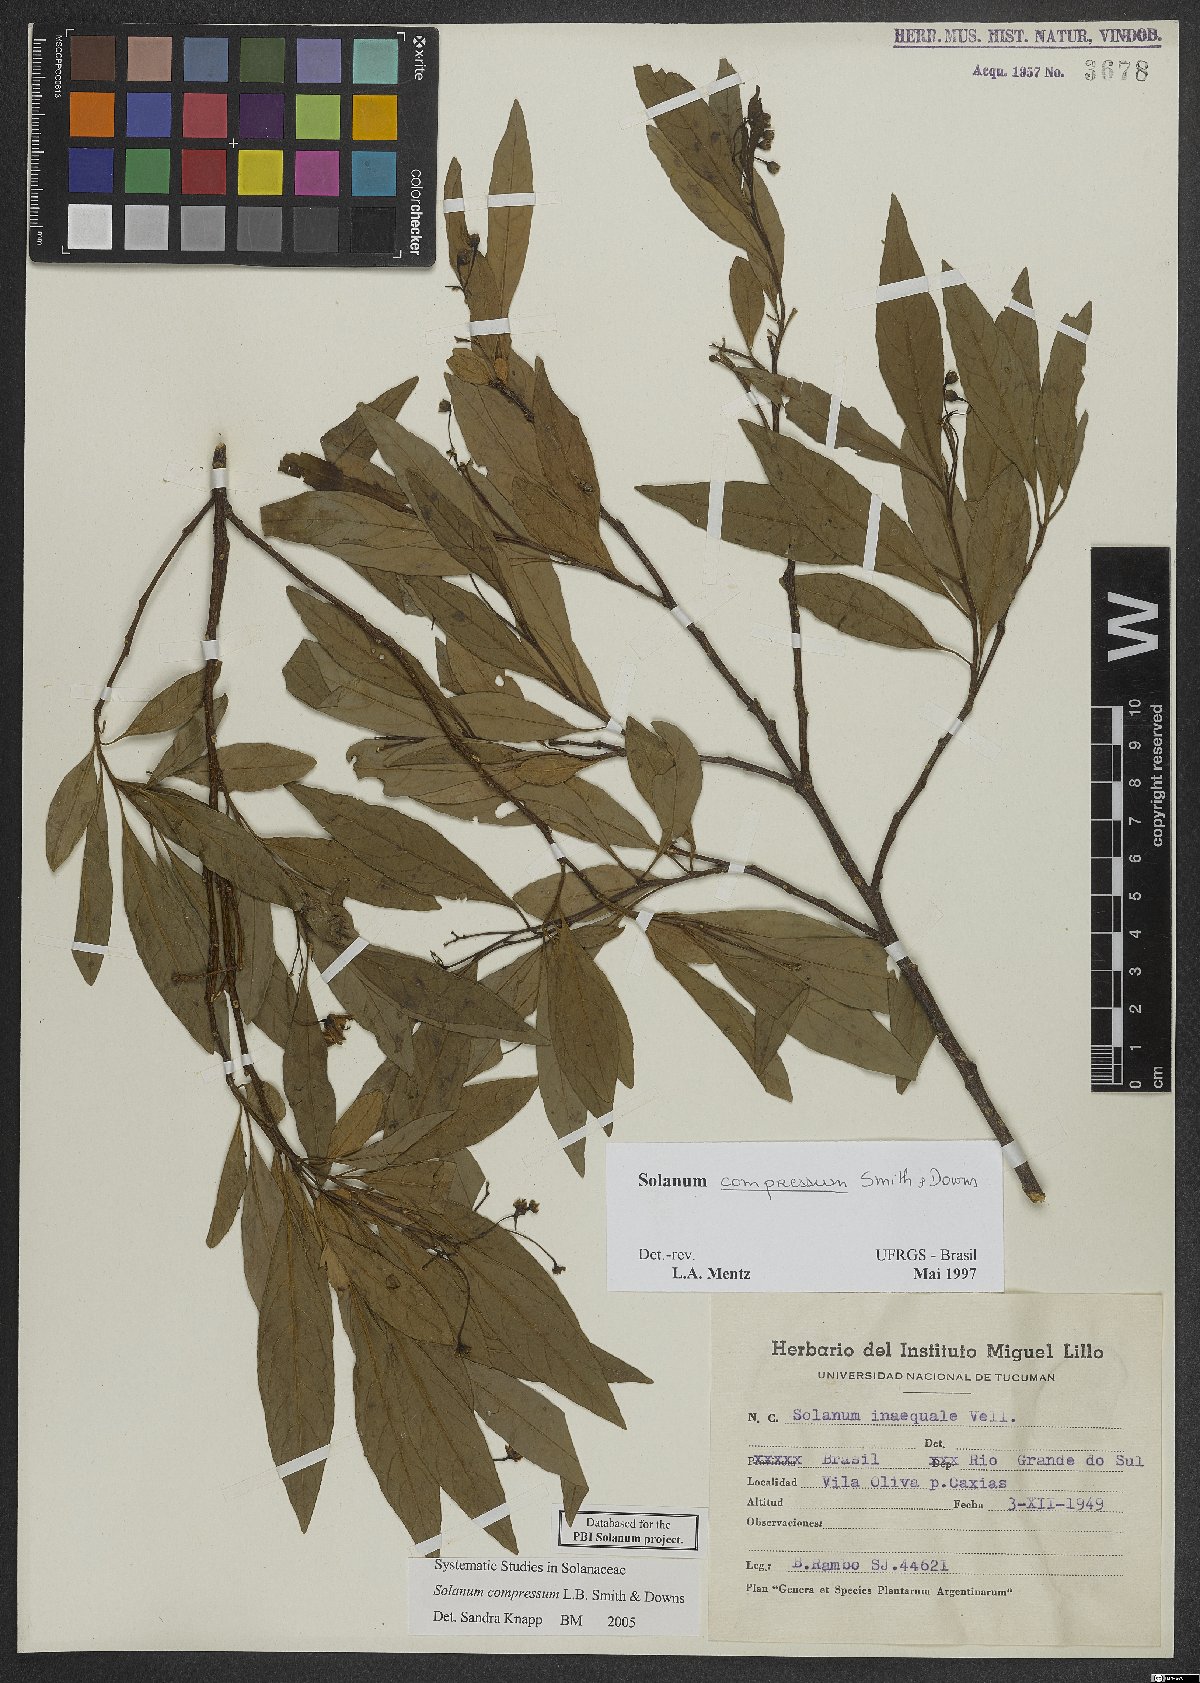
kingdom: Plantae
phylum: Tracheophyta
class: Magnoliopsida
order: Solanales
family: Solanaceae
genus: Solanum
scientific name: Solanum compressum
